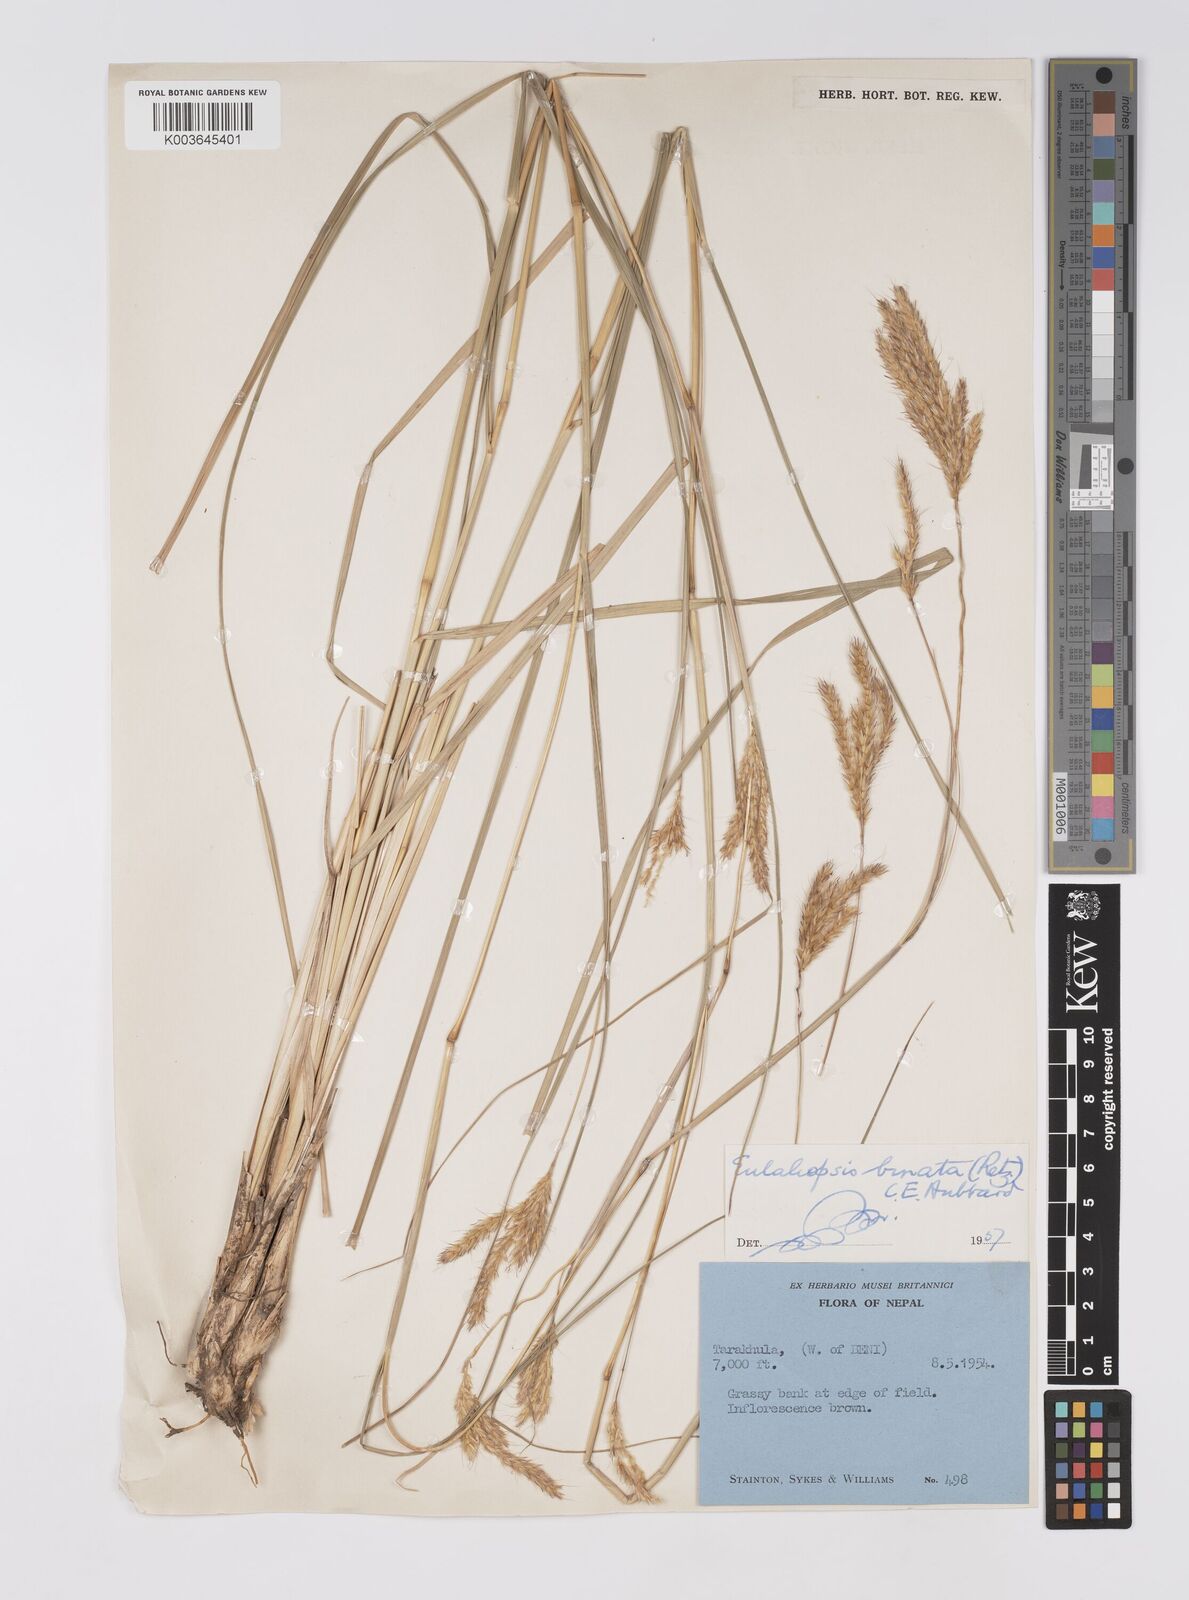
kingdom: Plantae
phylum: Tracheophyta
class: Liliopsida
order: Poales
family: Poaceae
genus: Eulaliopsis
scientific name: Eulaliopsis binata
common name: Baib grass
